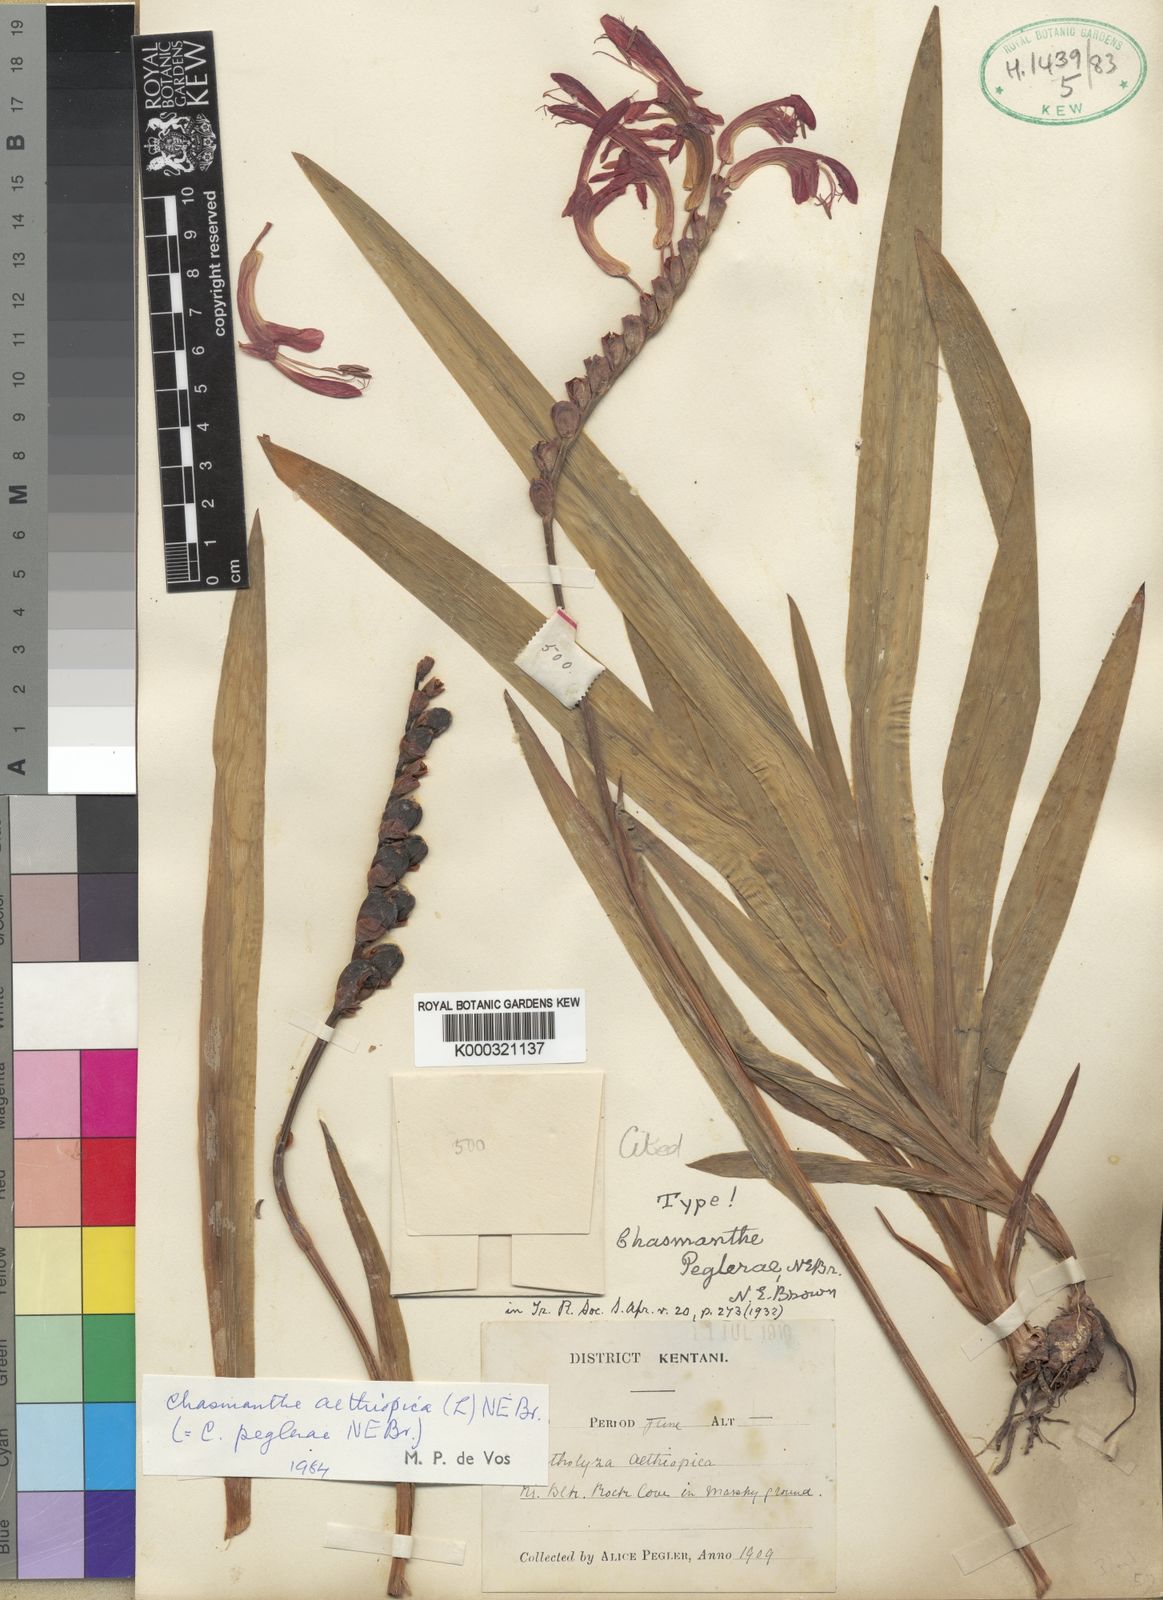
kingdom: Plantae
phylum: Tracheophyta
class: Liliopsida
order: Asparagales
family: Iridaceae
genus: Chasmanthe
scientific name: Chasmanthe aethiopica
